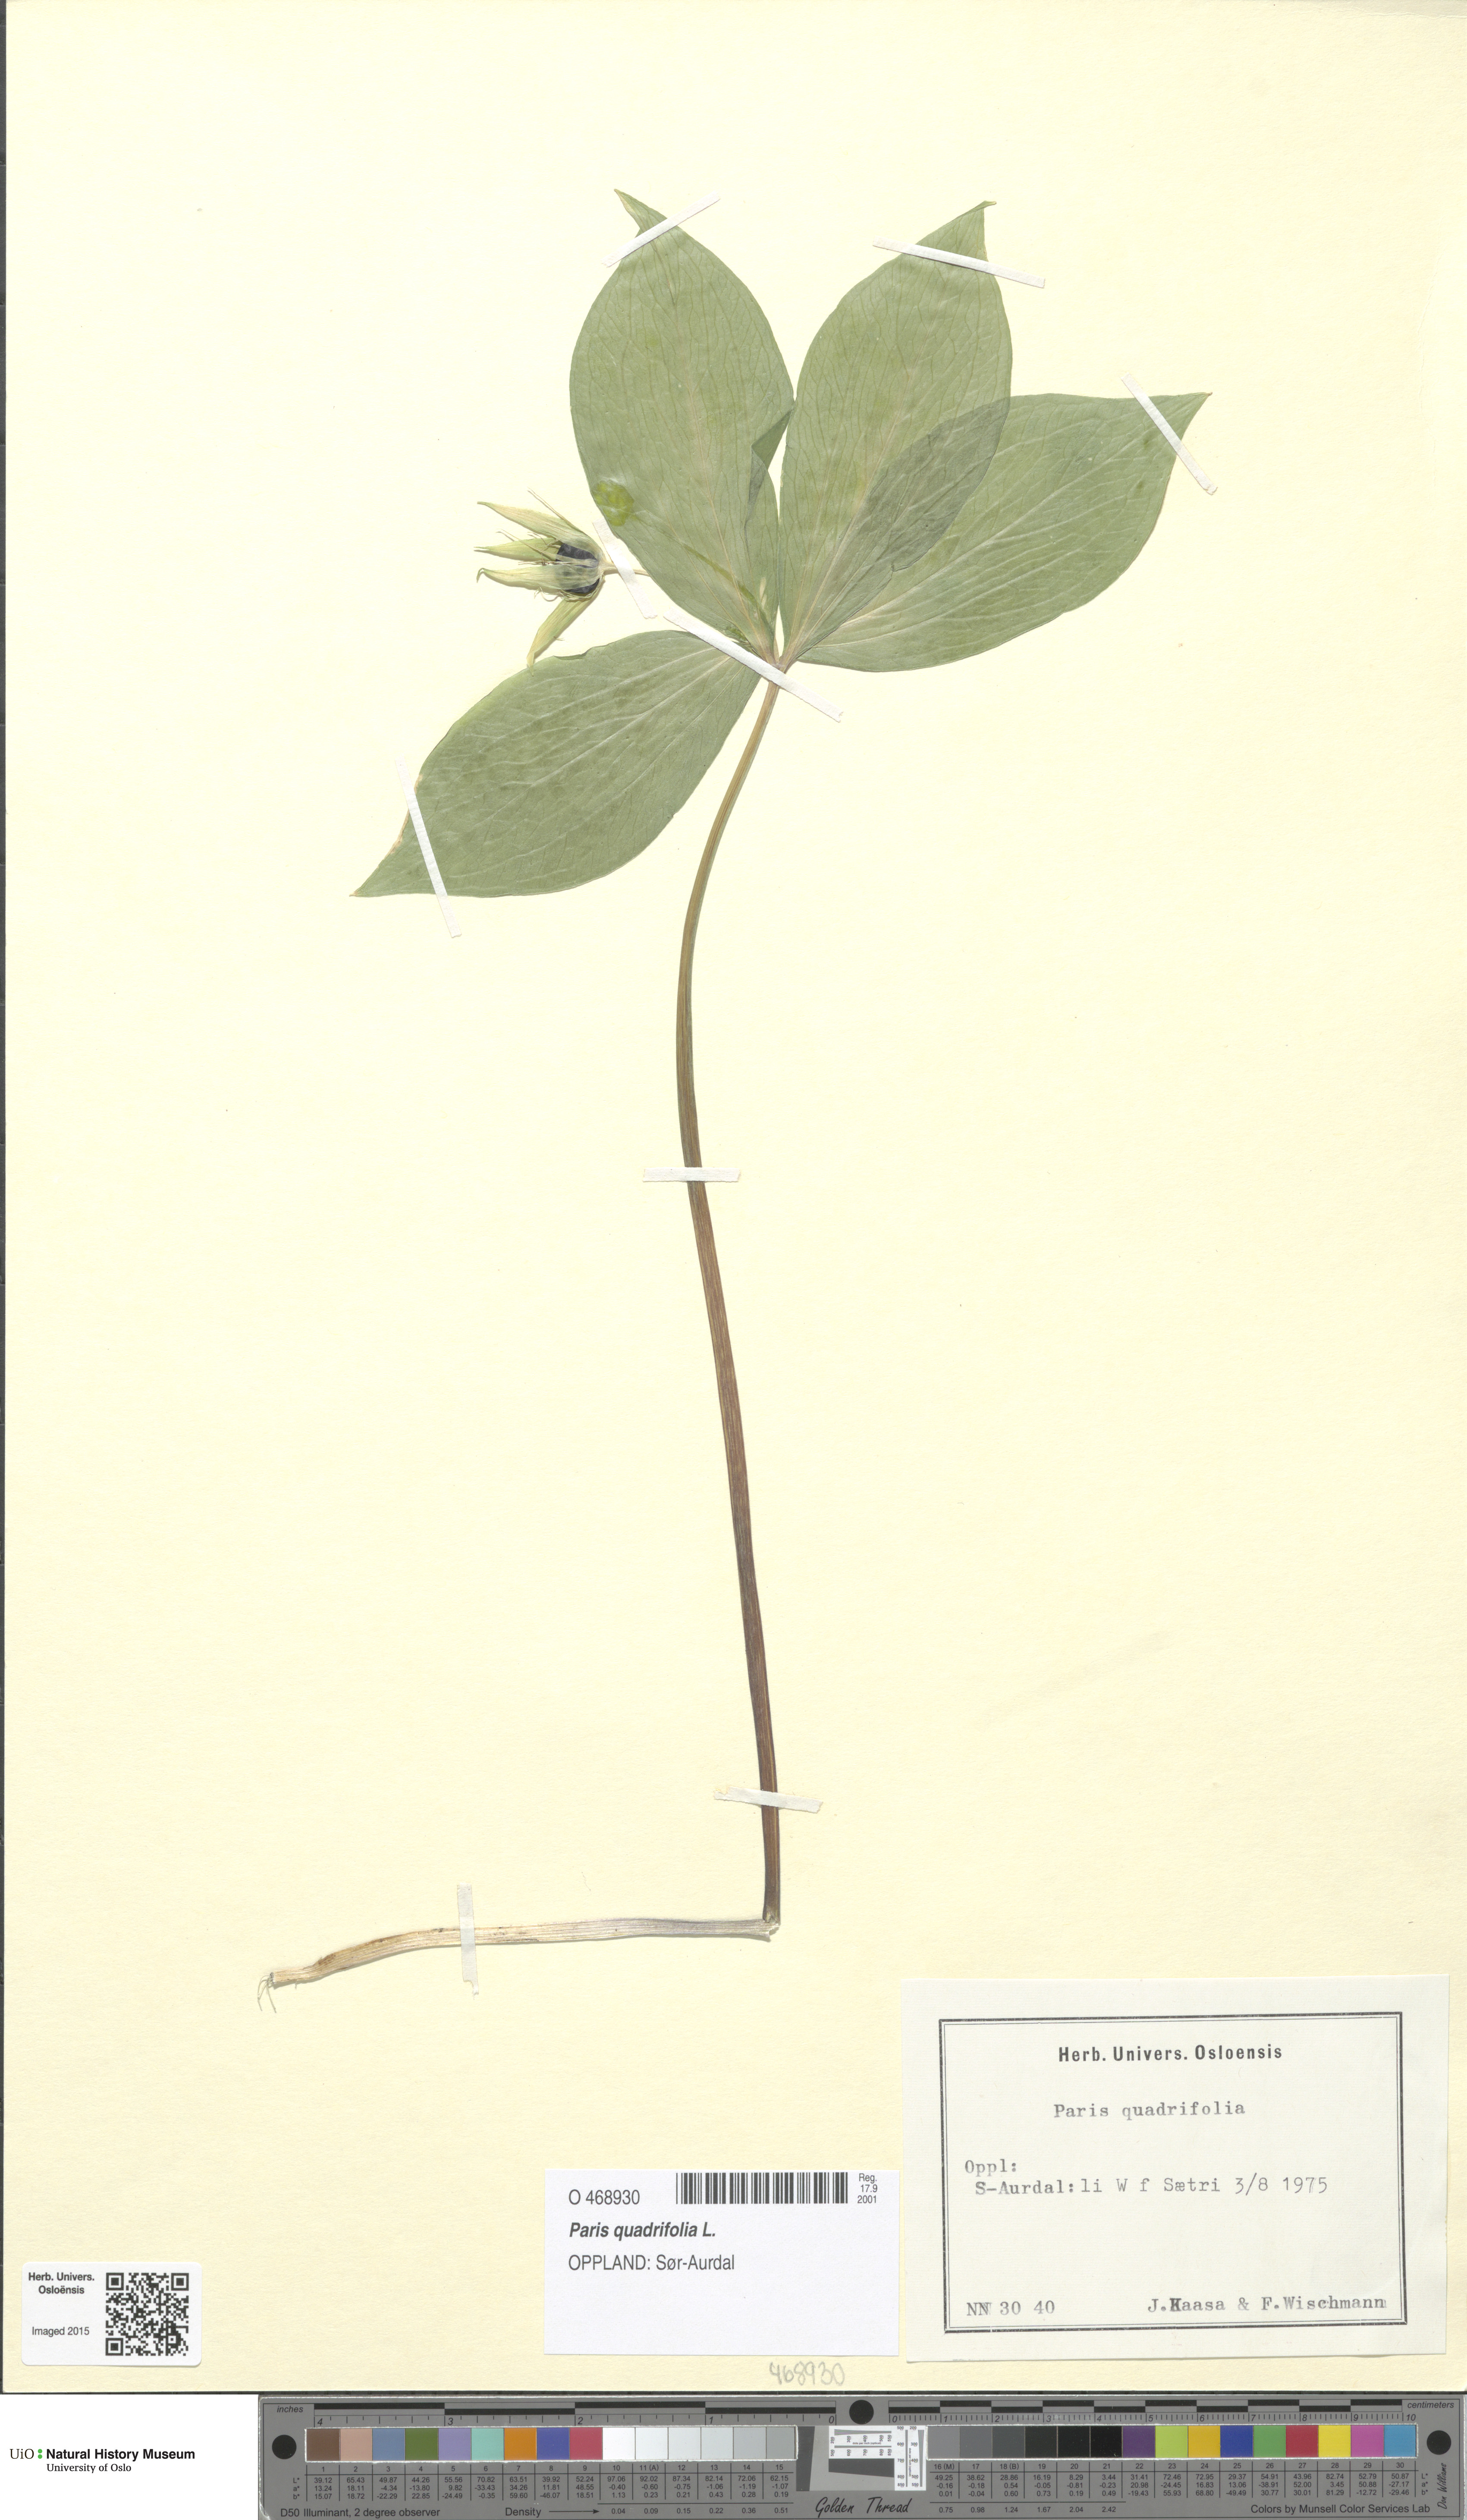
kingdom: Plantae
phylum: Tracheophyta
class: Liliopsida
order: Liliales
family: Melanthiaceae
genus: Paris
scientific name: Paris quadrifolia
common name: Herb-paris
